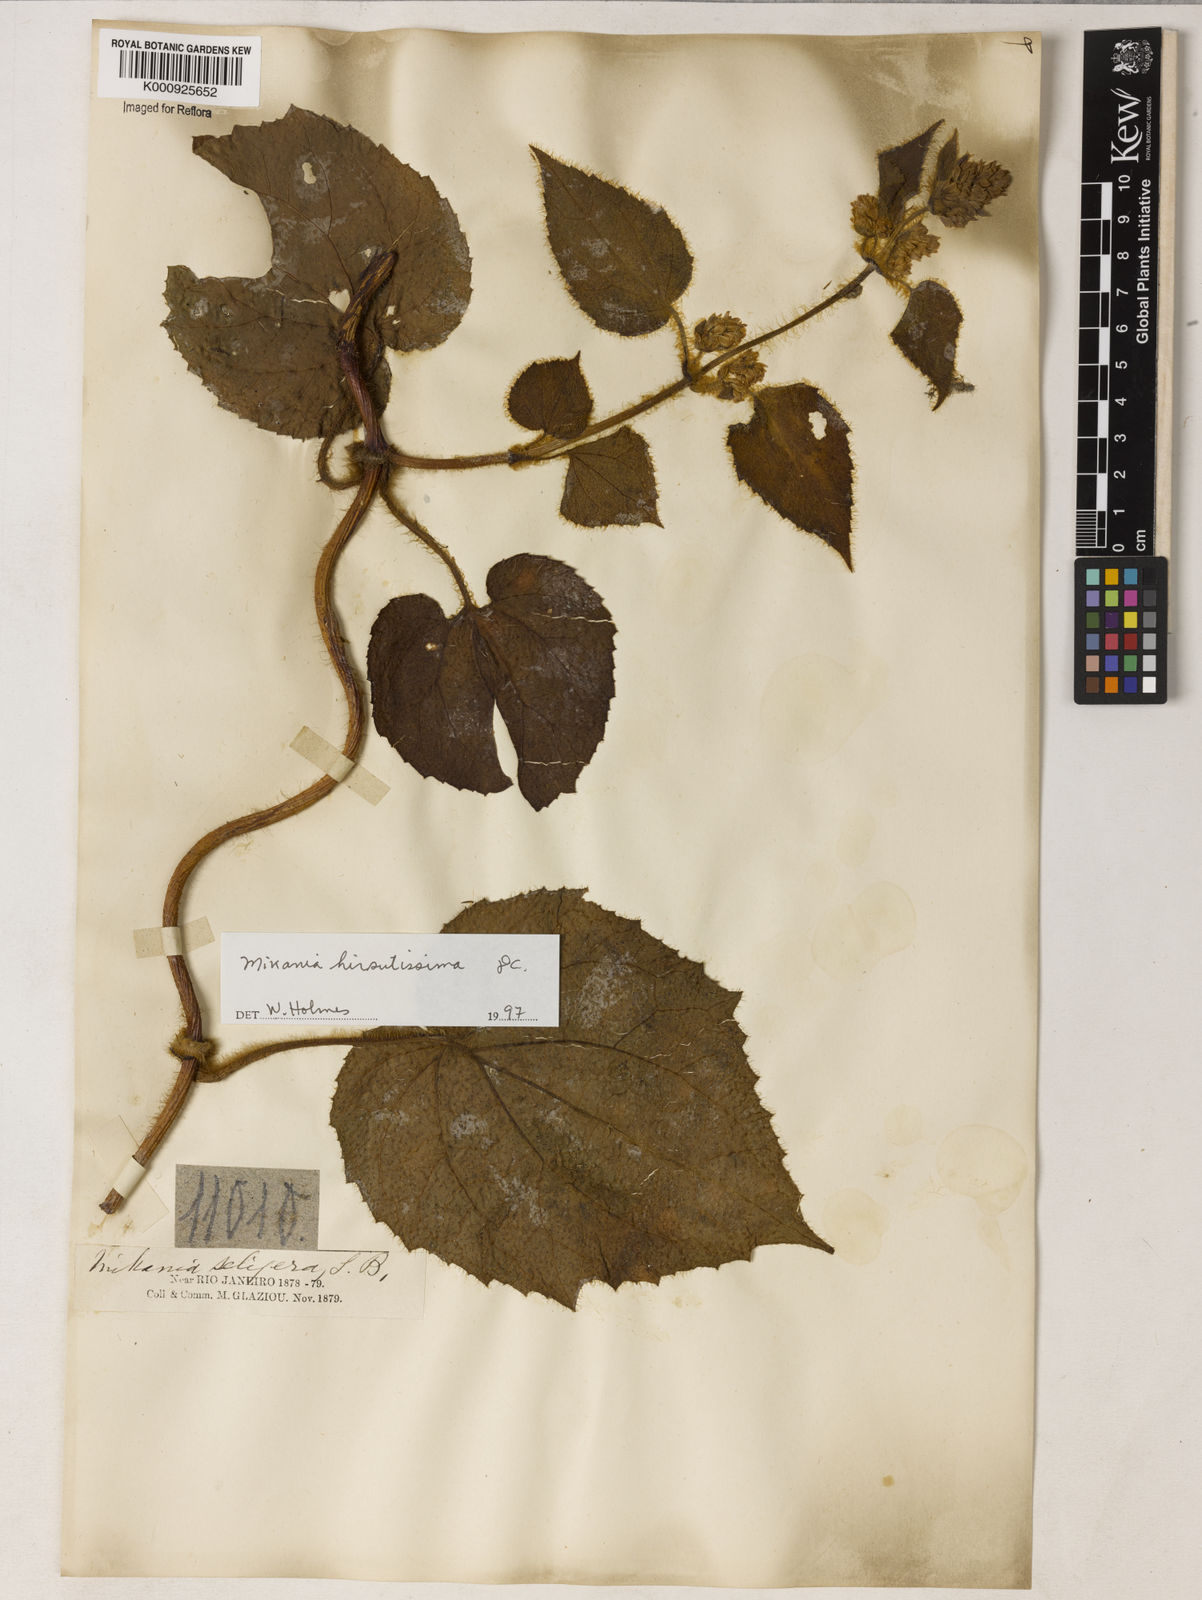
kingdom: Plantae
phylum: Tracheophyta
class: Magnoliopsida
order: Asterales
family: Asteraceae
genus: Mikania
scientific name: Mikania
